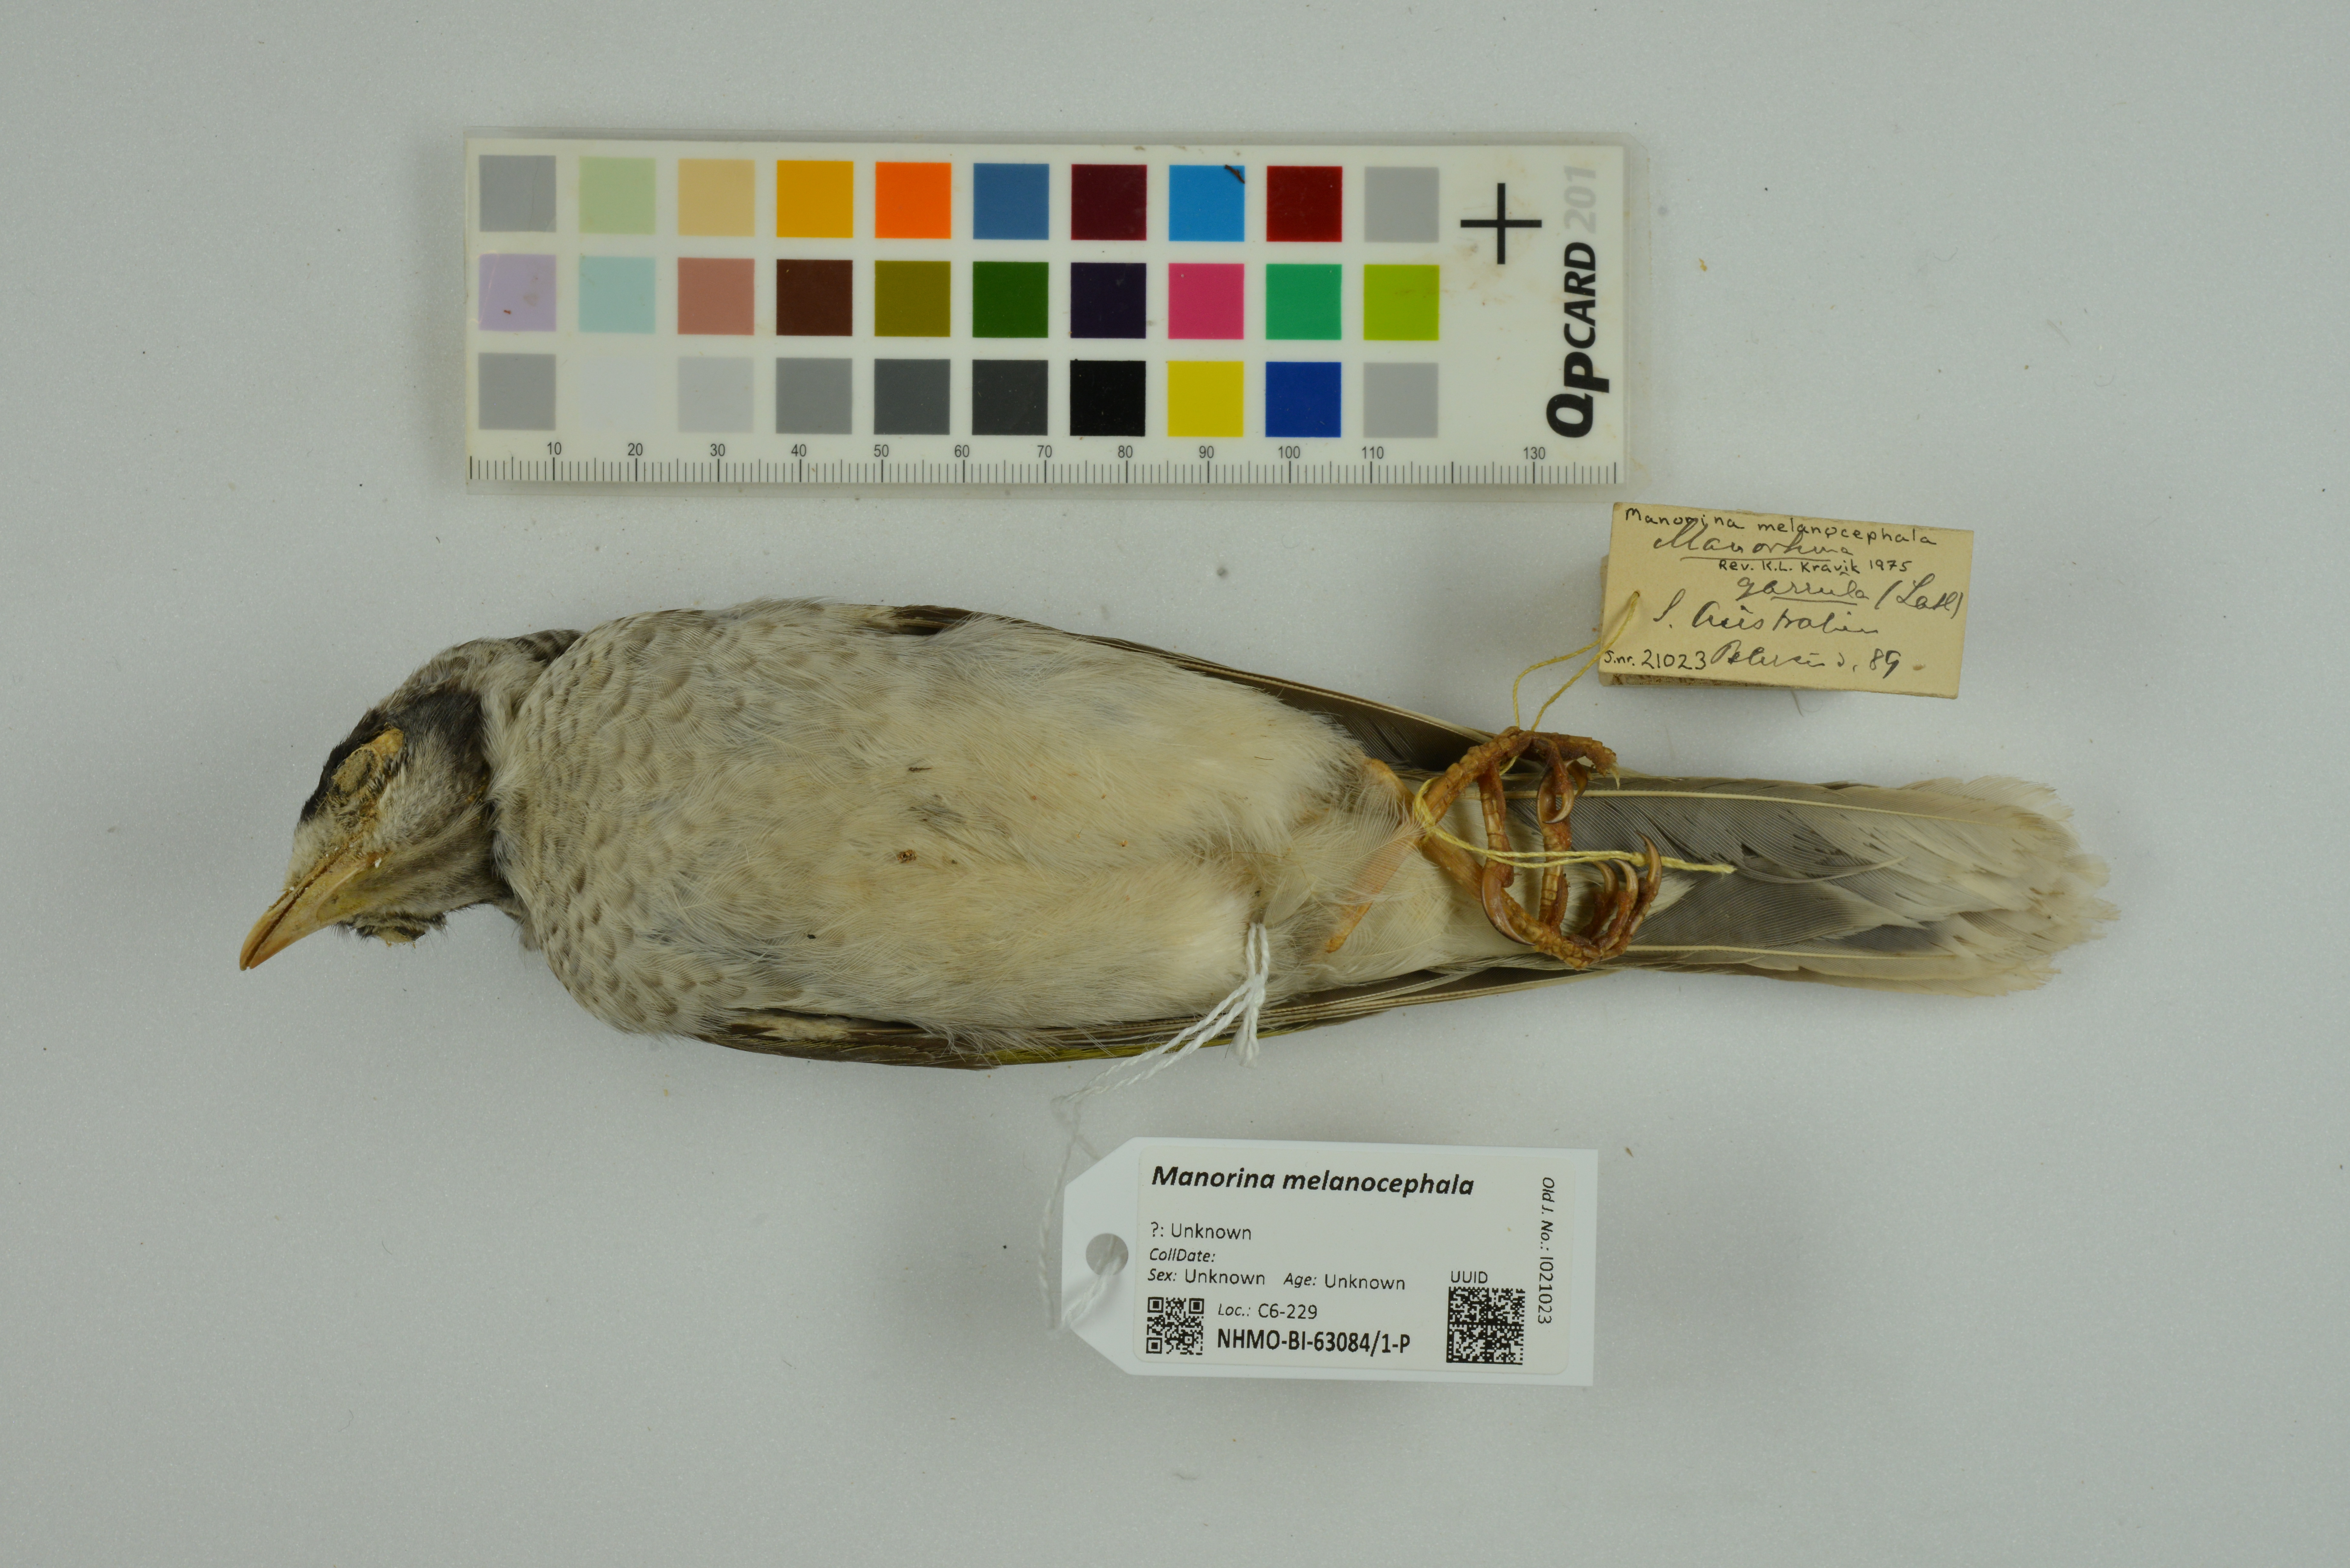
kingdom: Animalia
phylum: Chordata
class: Aves
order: Passeriformes
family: Meliphagidae
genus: Manorina
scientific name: Manorina melanocephala
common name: Noisy miner
